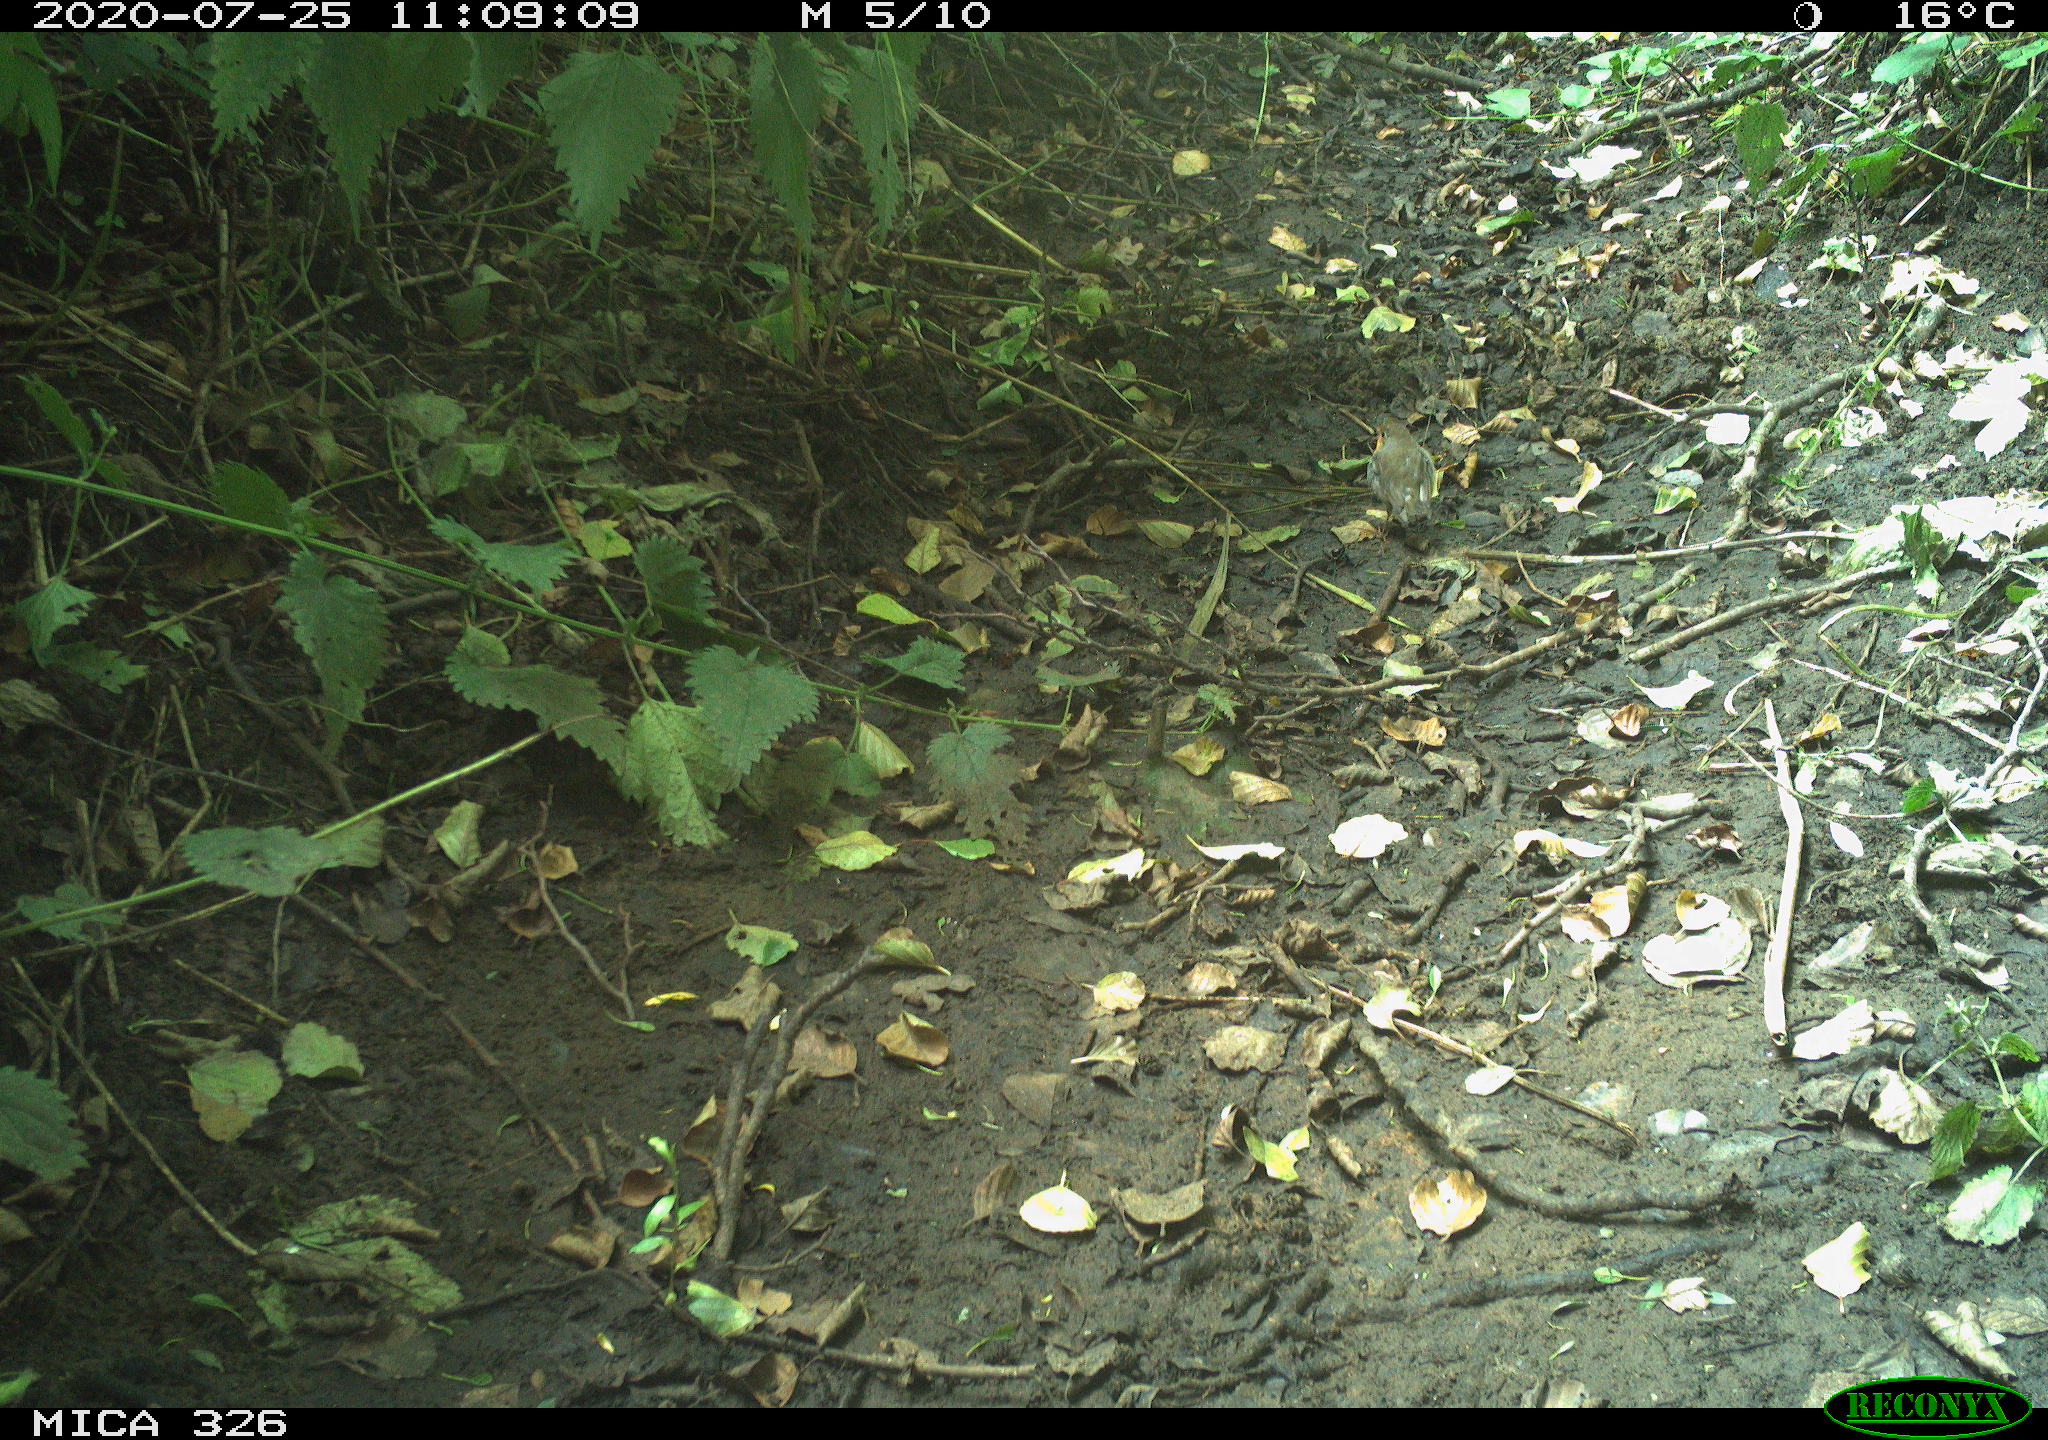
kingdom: Animalia
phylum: Chordata
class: Aves
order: Passeriformes
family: Muscicapidae
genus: Erithacus
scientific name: Erithacus rubecula
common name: European robin
